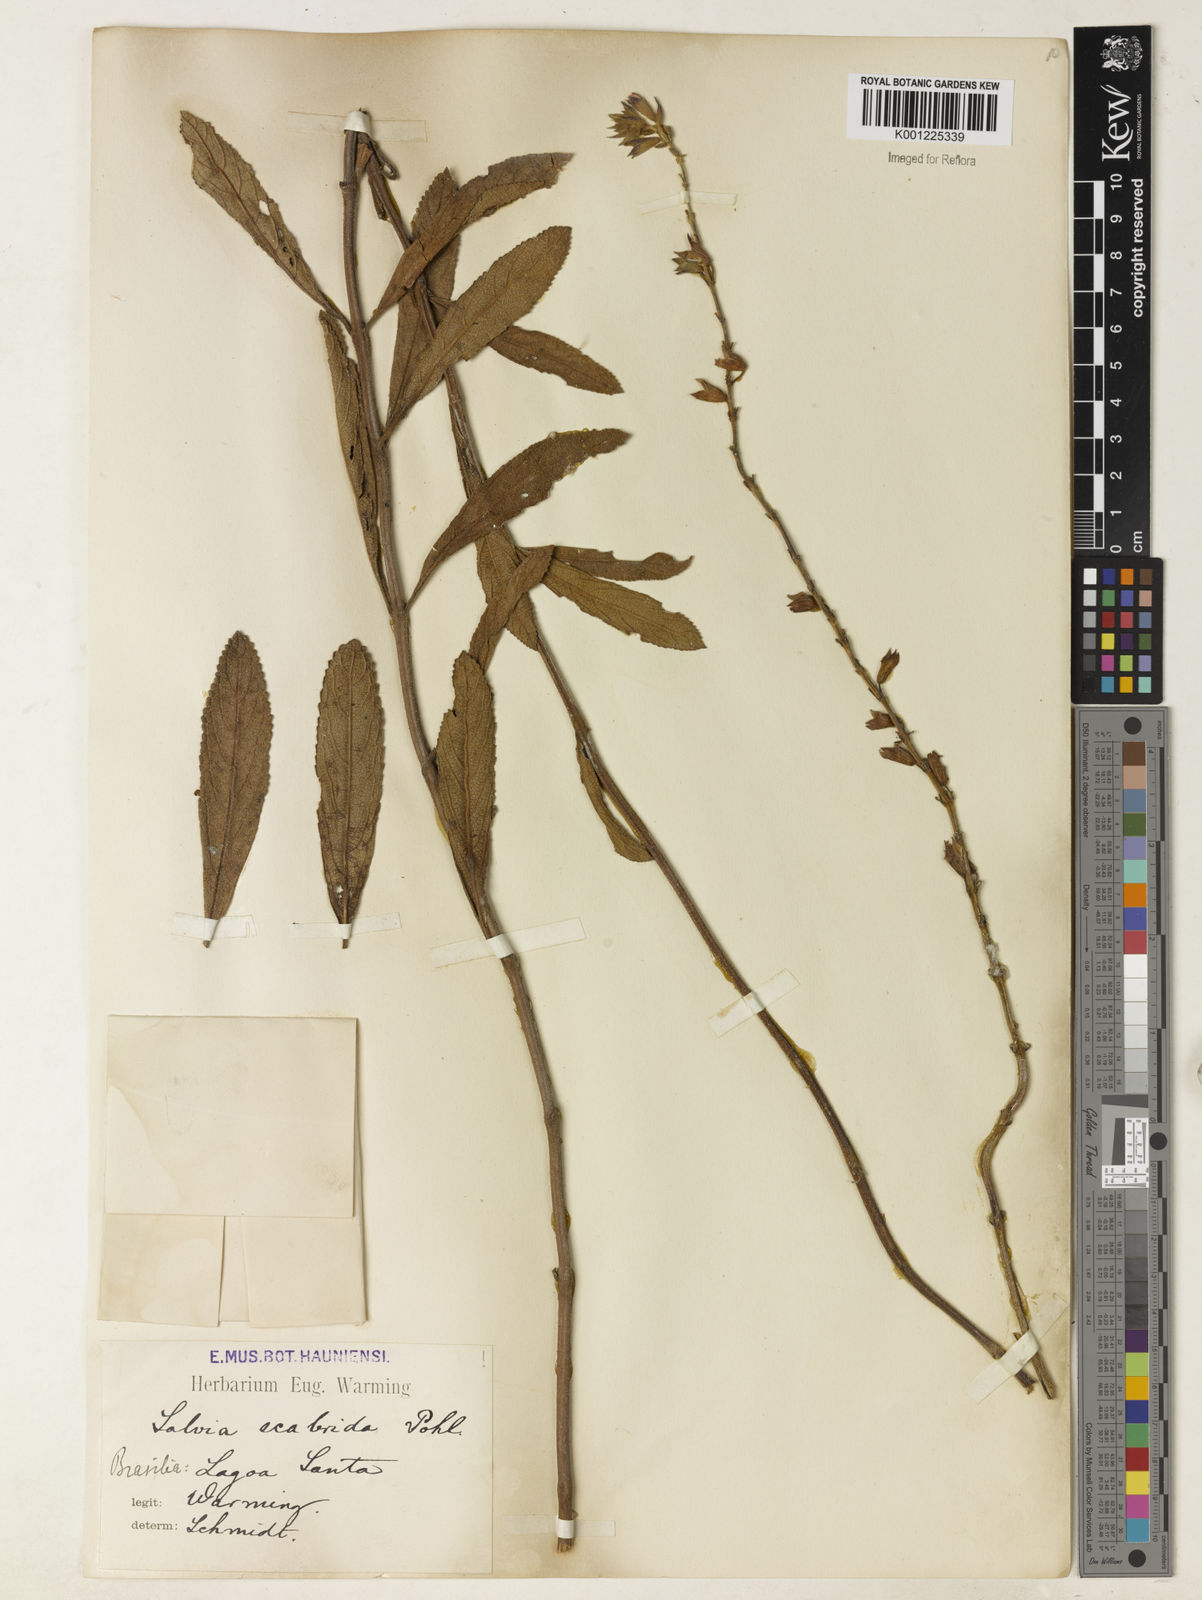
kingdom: Plantae
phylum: Tracheophyta
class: Magnoliopsida
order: Lamiales
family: Lamiaceae
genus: Salvia
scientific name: Salvia scabrida
